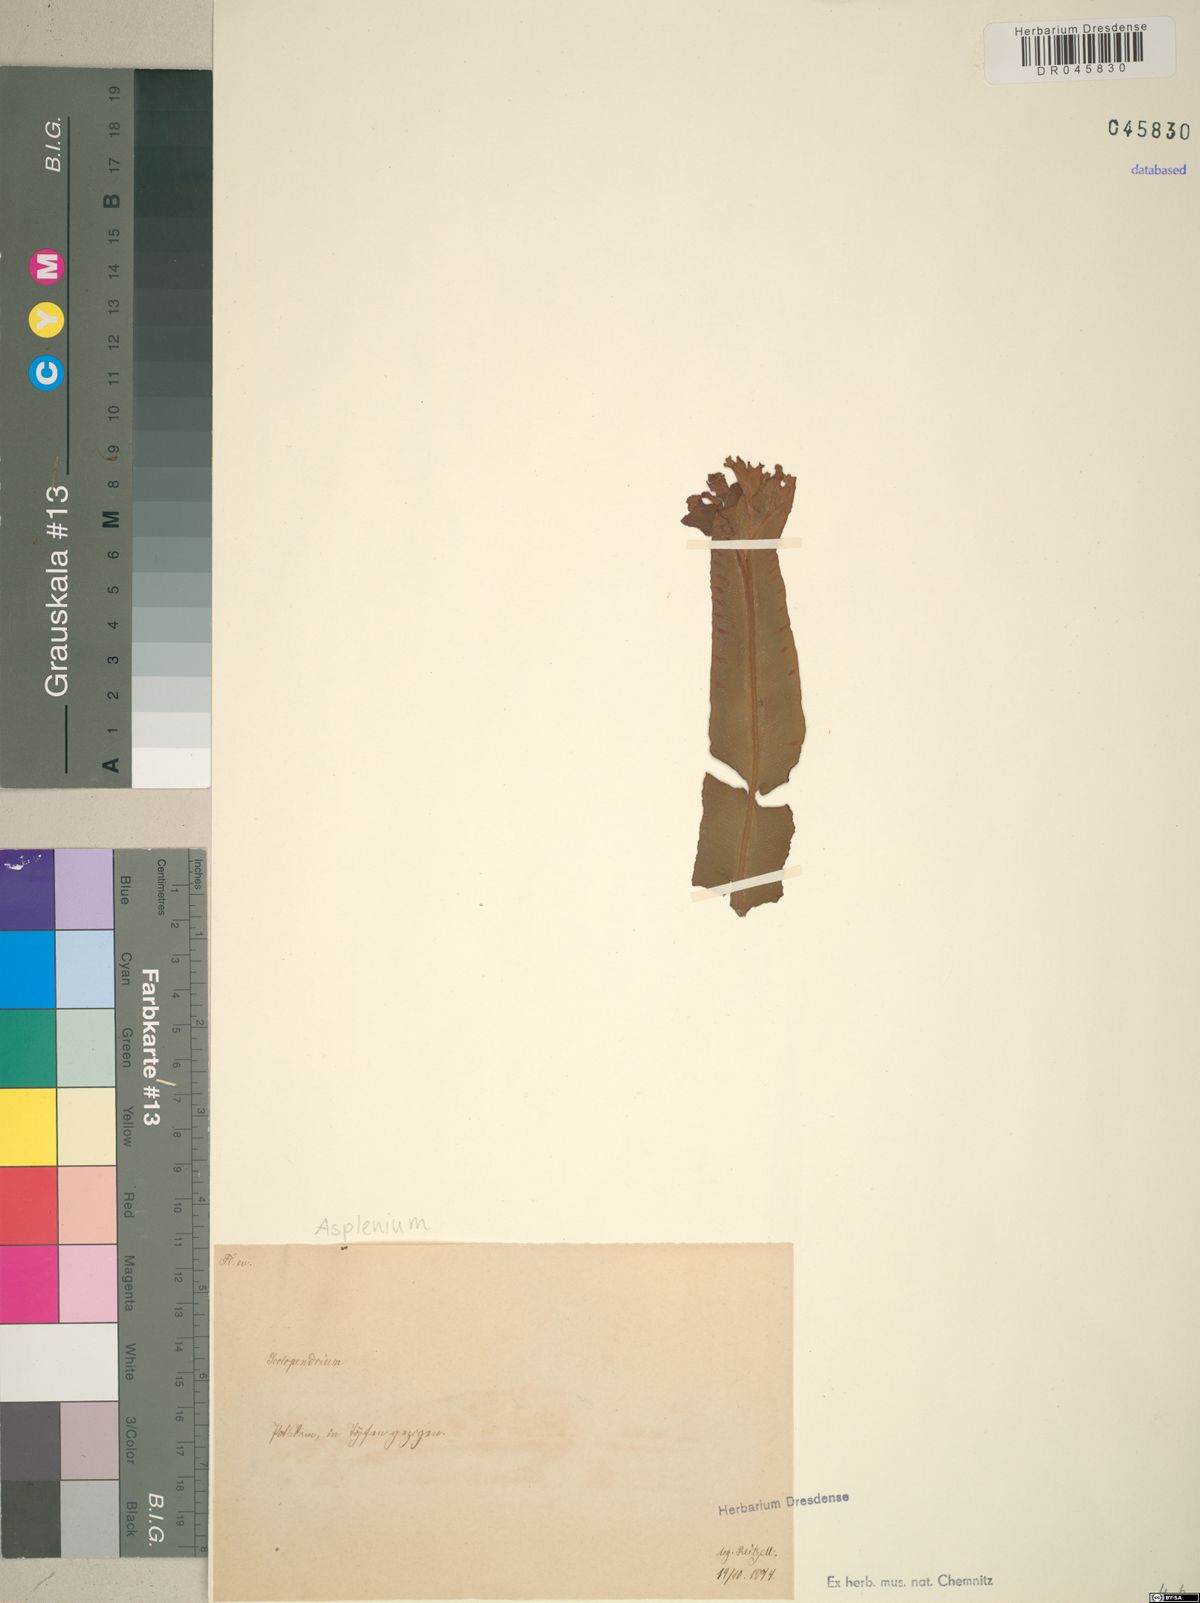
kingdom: Plantae
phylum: Tracheophyta
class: Polypodiopsida
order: Polypodiales
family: Aspleniaceae
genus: Asplenium
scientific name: Asplenium
